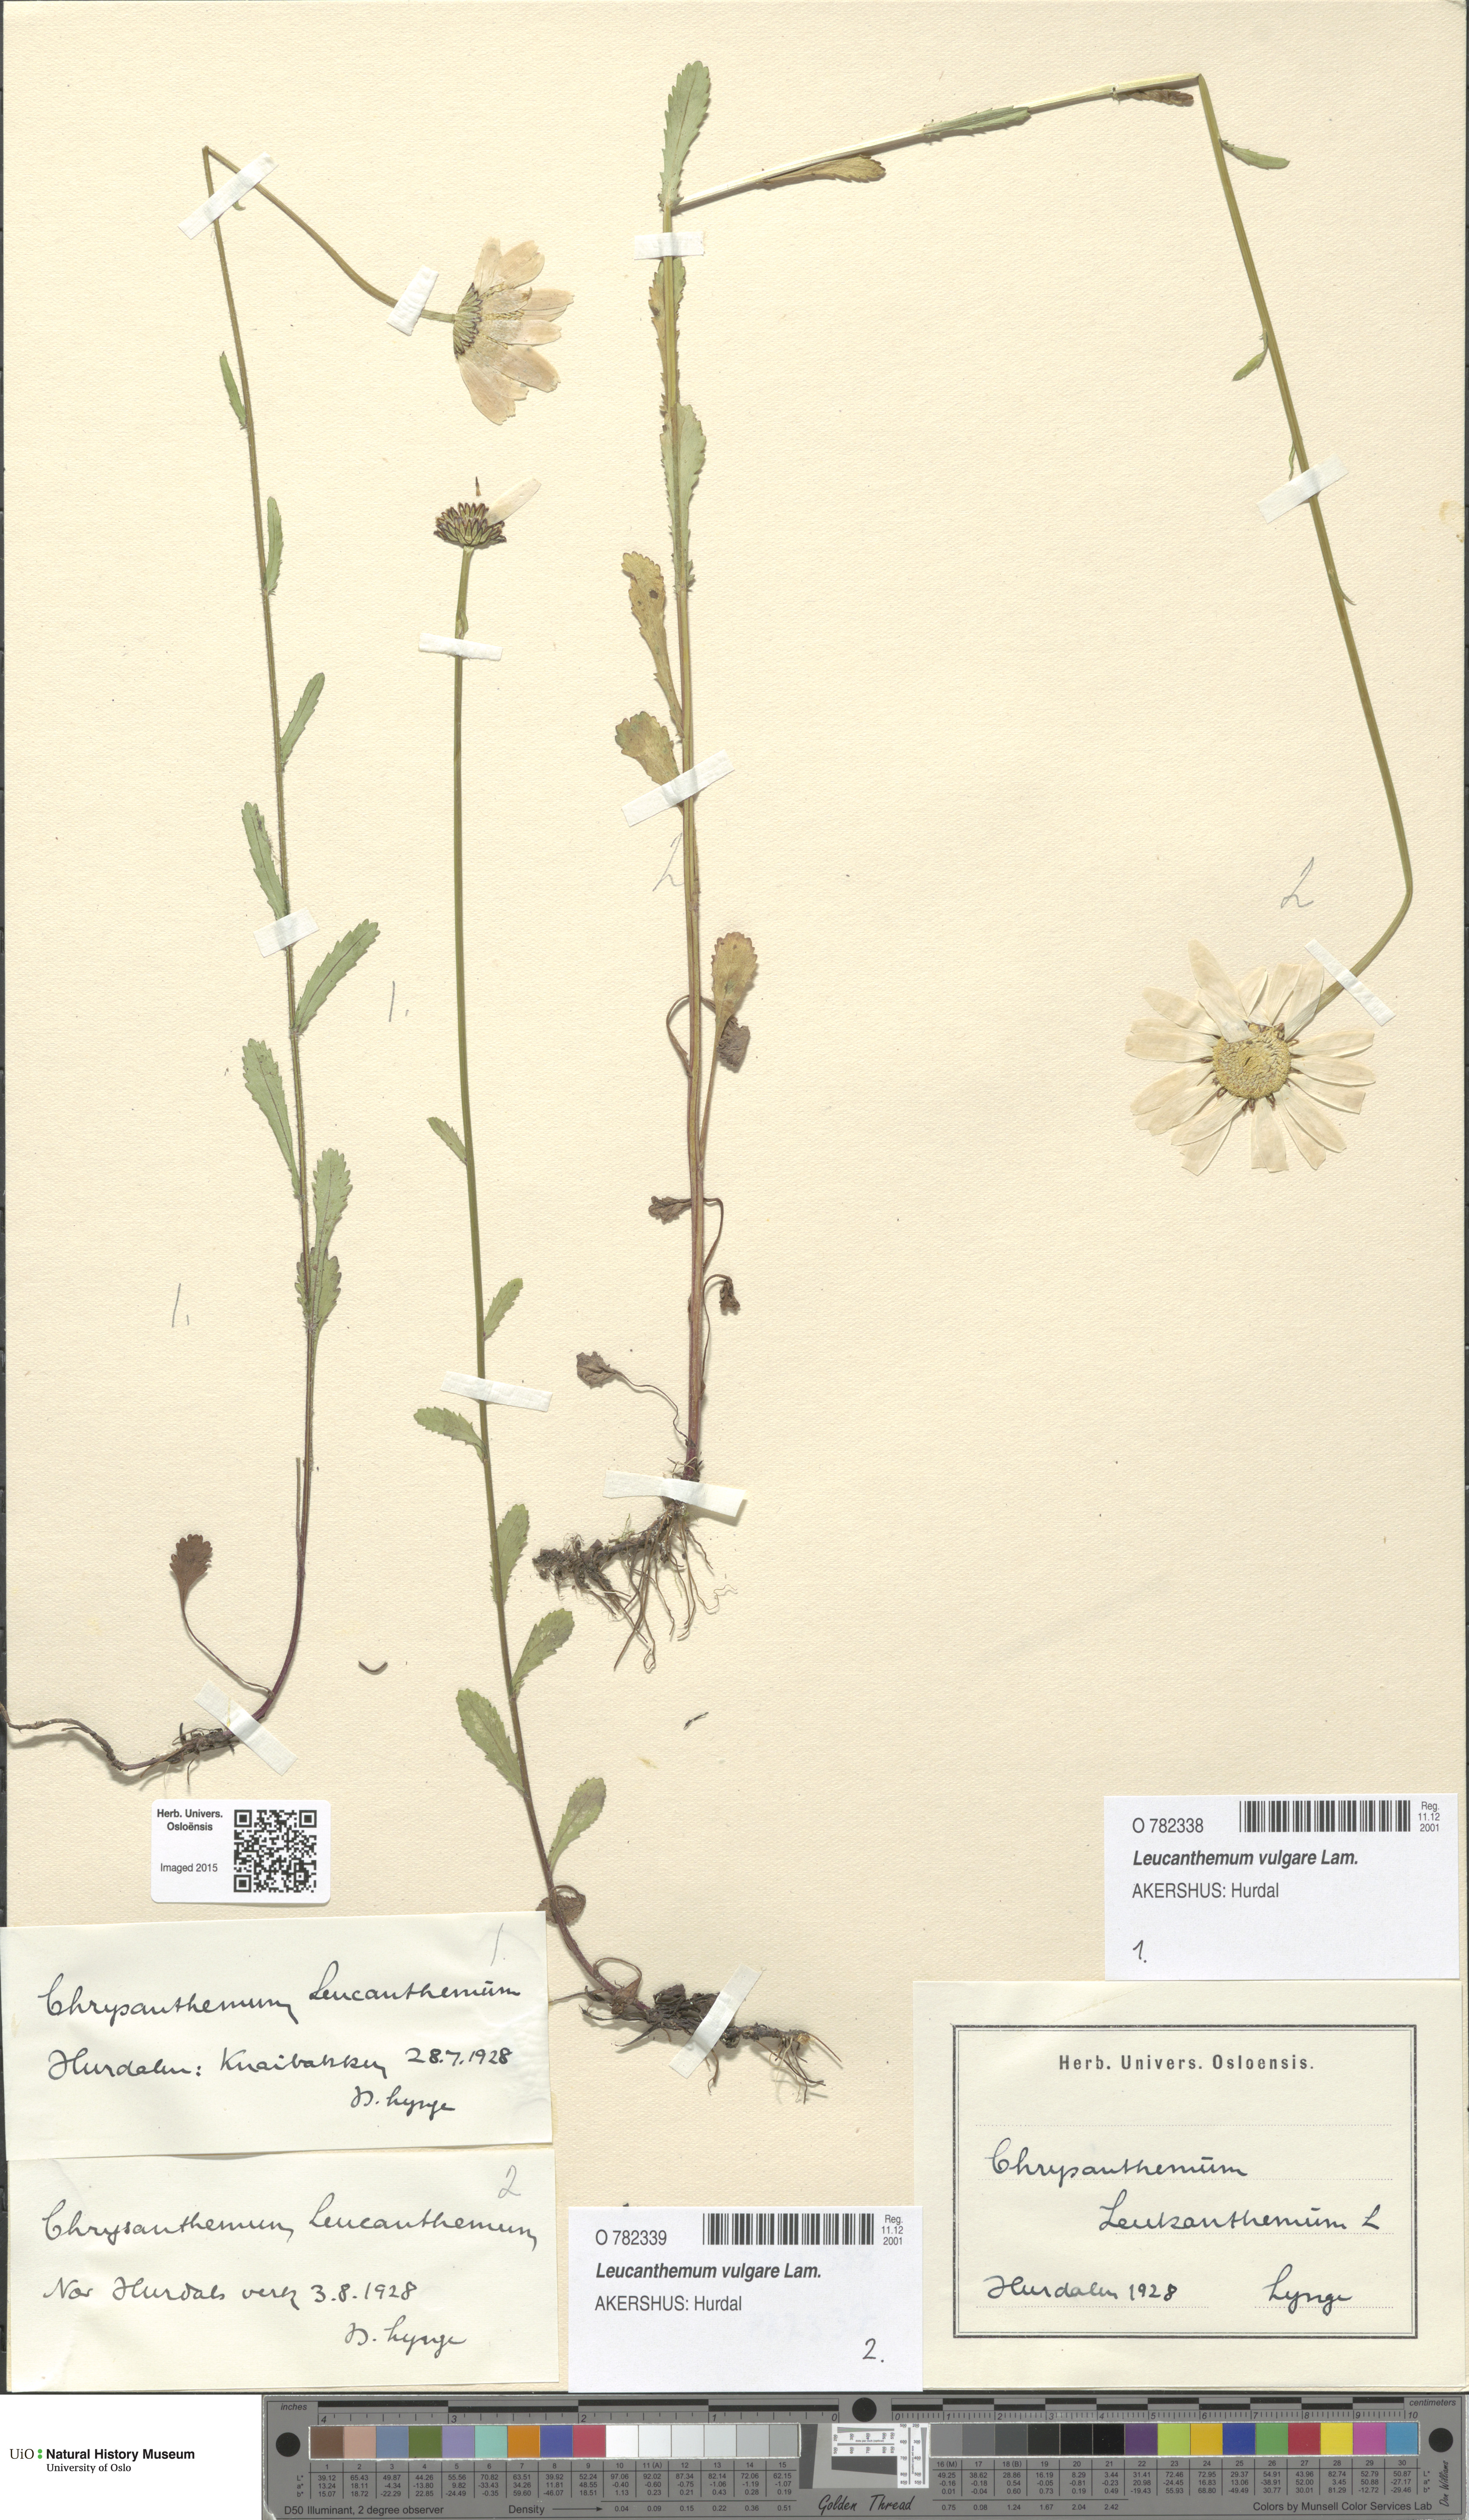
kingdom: Plantae
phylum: Tracheophyta
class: Magnoliopsida
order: Asterales
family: Asteraceae
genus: Leucanthemum
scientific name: Leucanthemum vulgare
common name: Oxeye daisy
